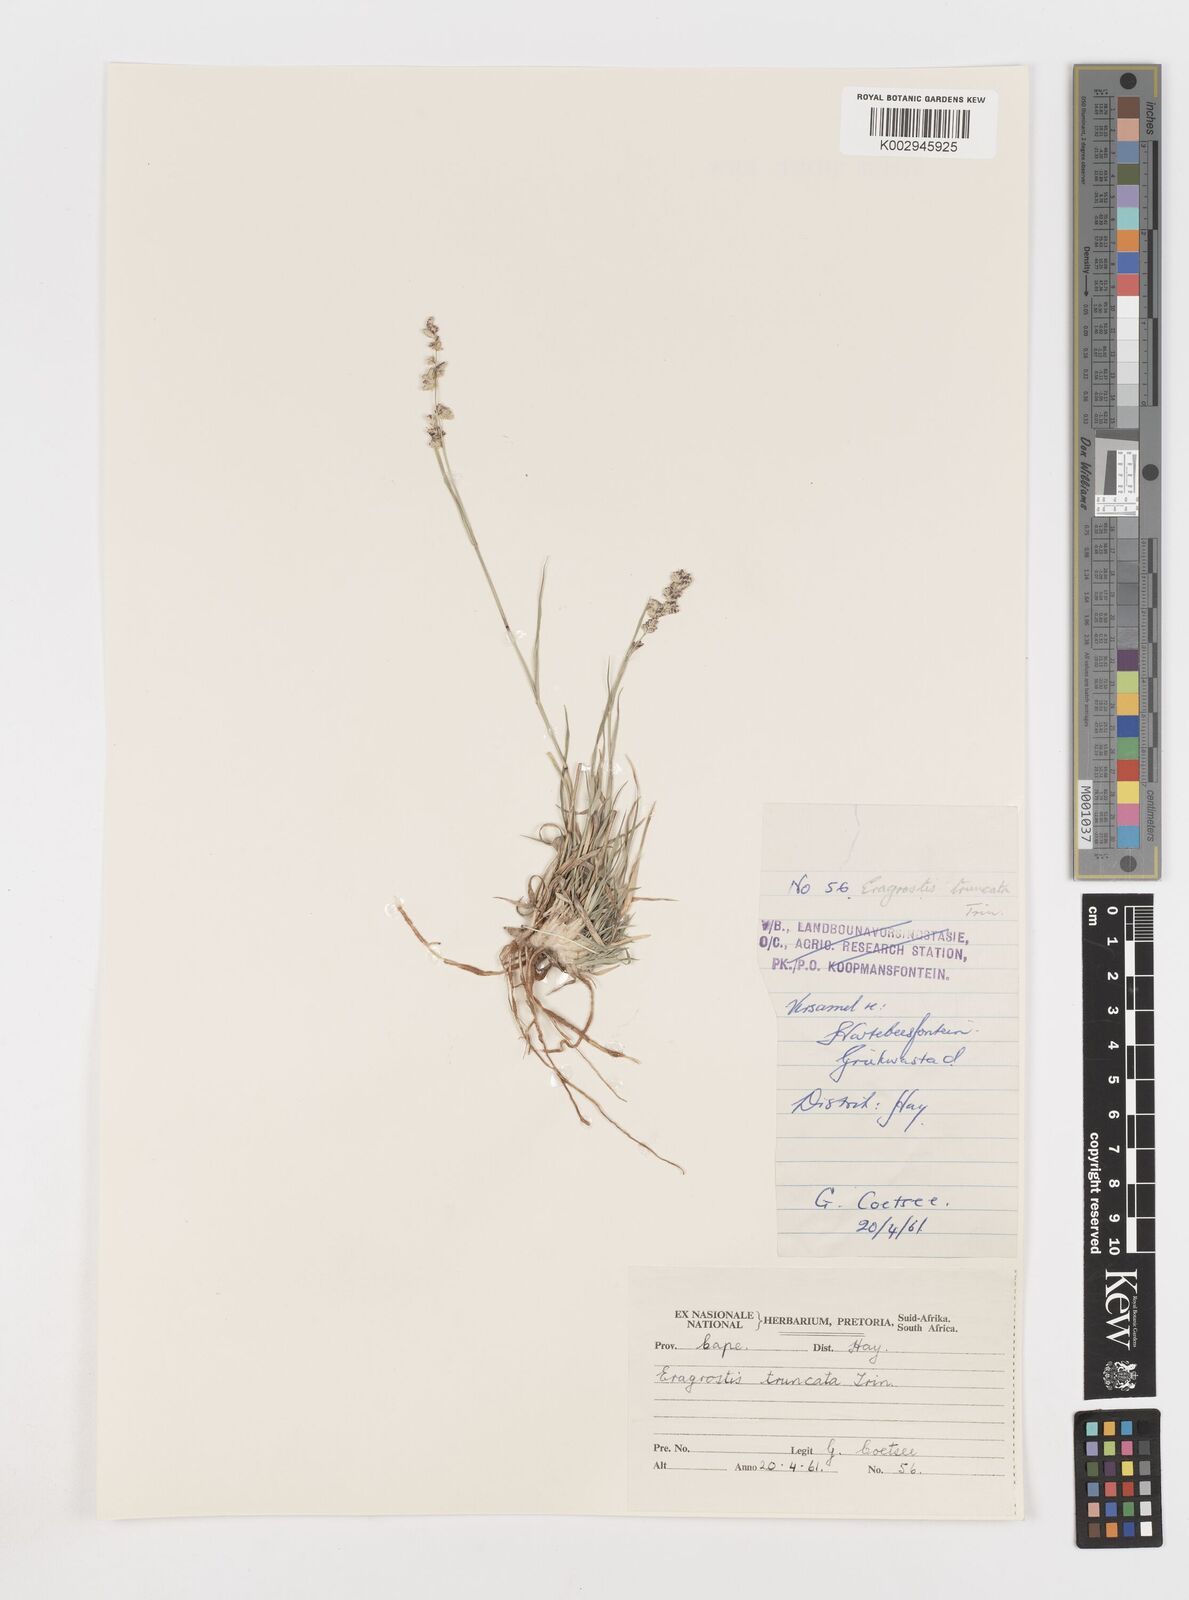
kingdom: Plantae
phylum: Tracheophyta
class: Liliopsida
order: Poales
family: Poaceae
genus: Eragrostis
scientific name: Eragrostis truncata
